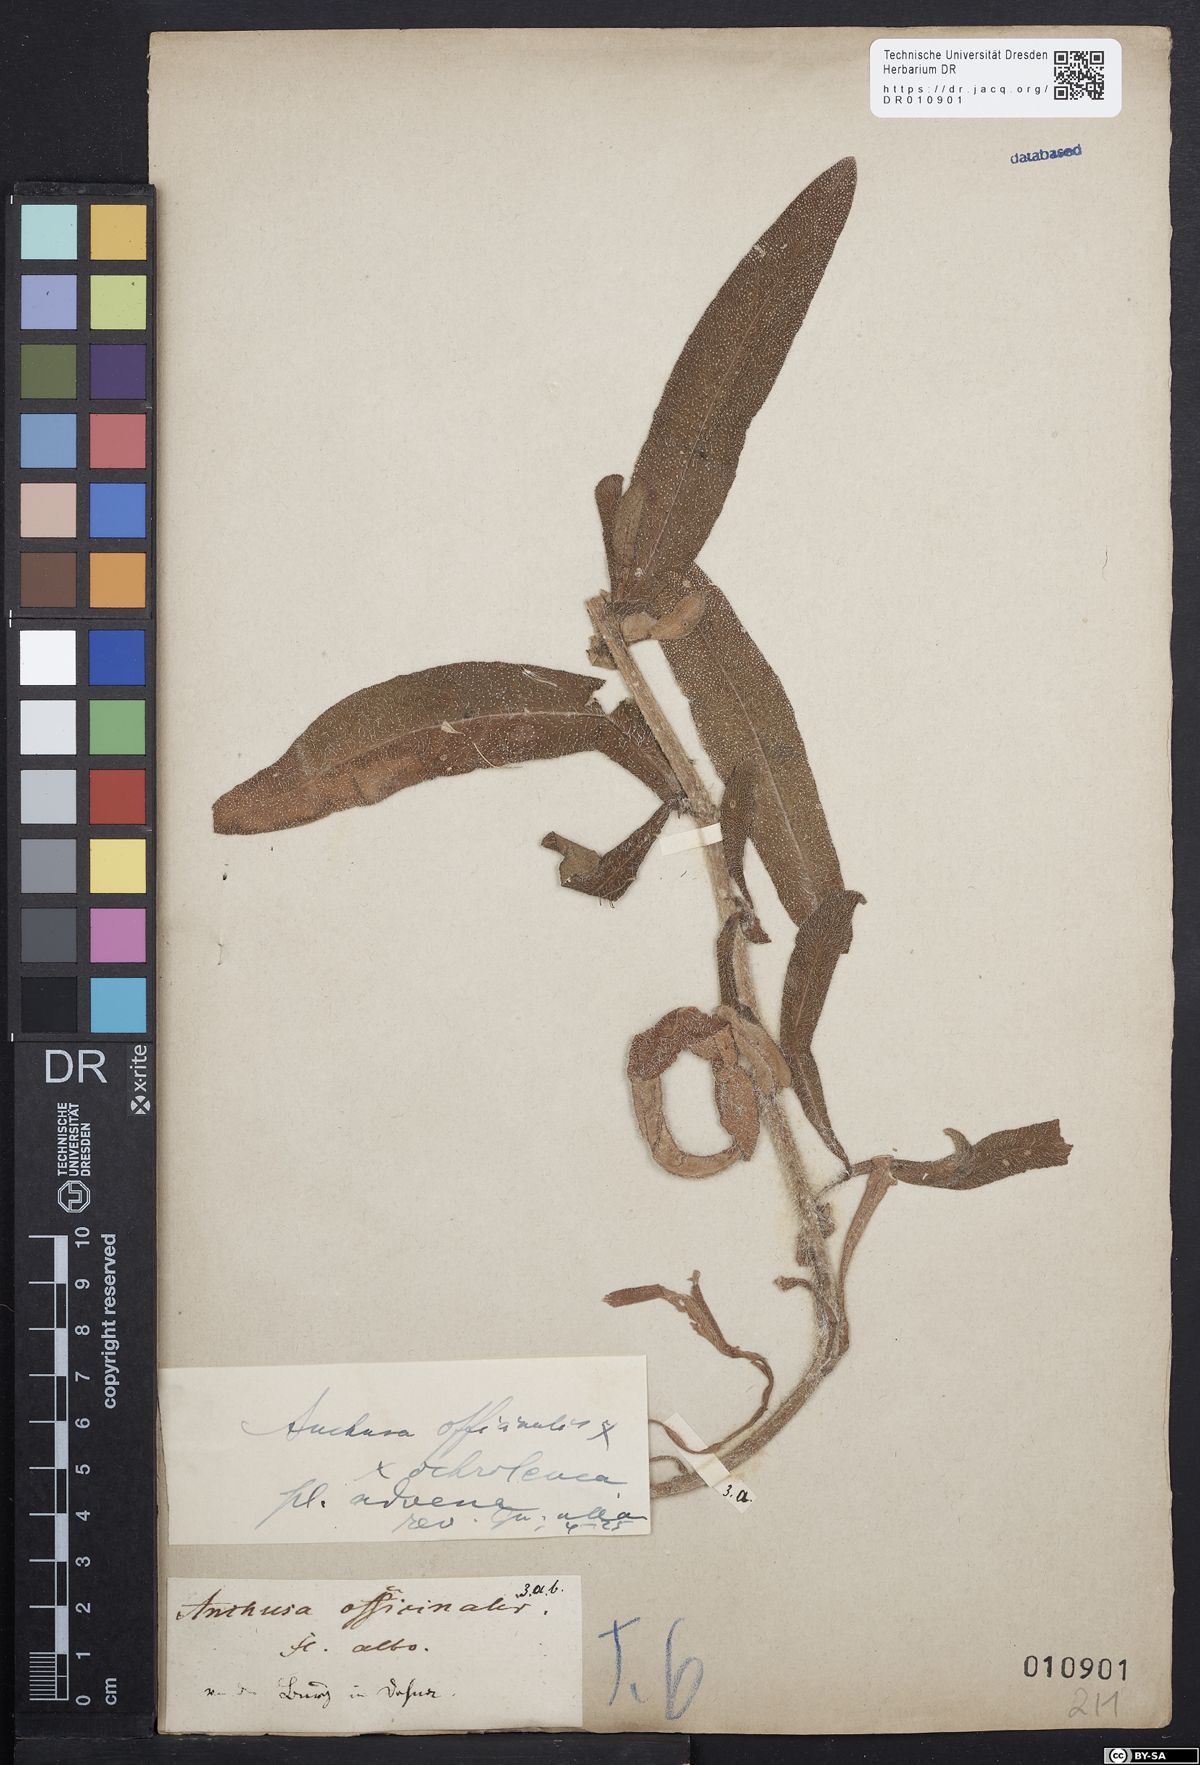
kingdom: Plantae
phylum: Tracheophyta
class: Magnoliopsida
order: Boraginales
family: Boraginaceae
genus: Anchusa
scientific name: Anchusa officinalis
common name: Alkanet
